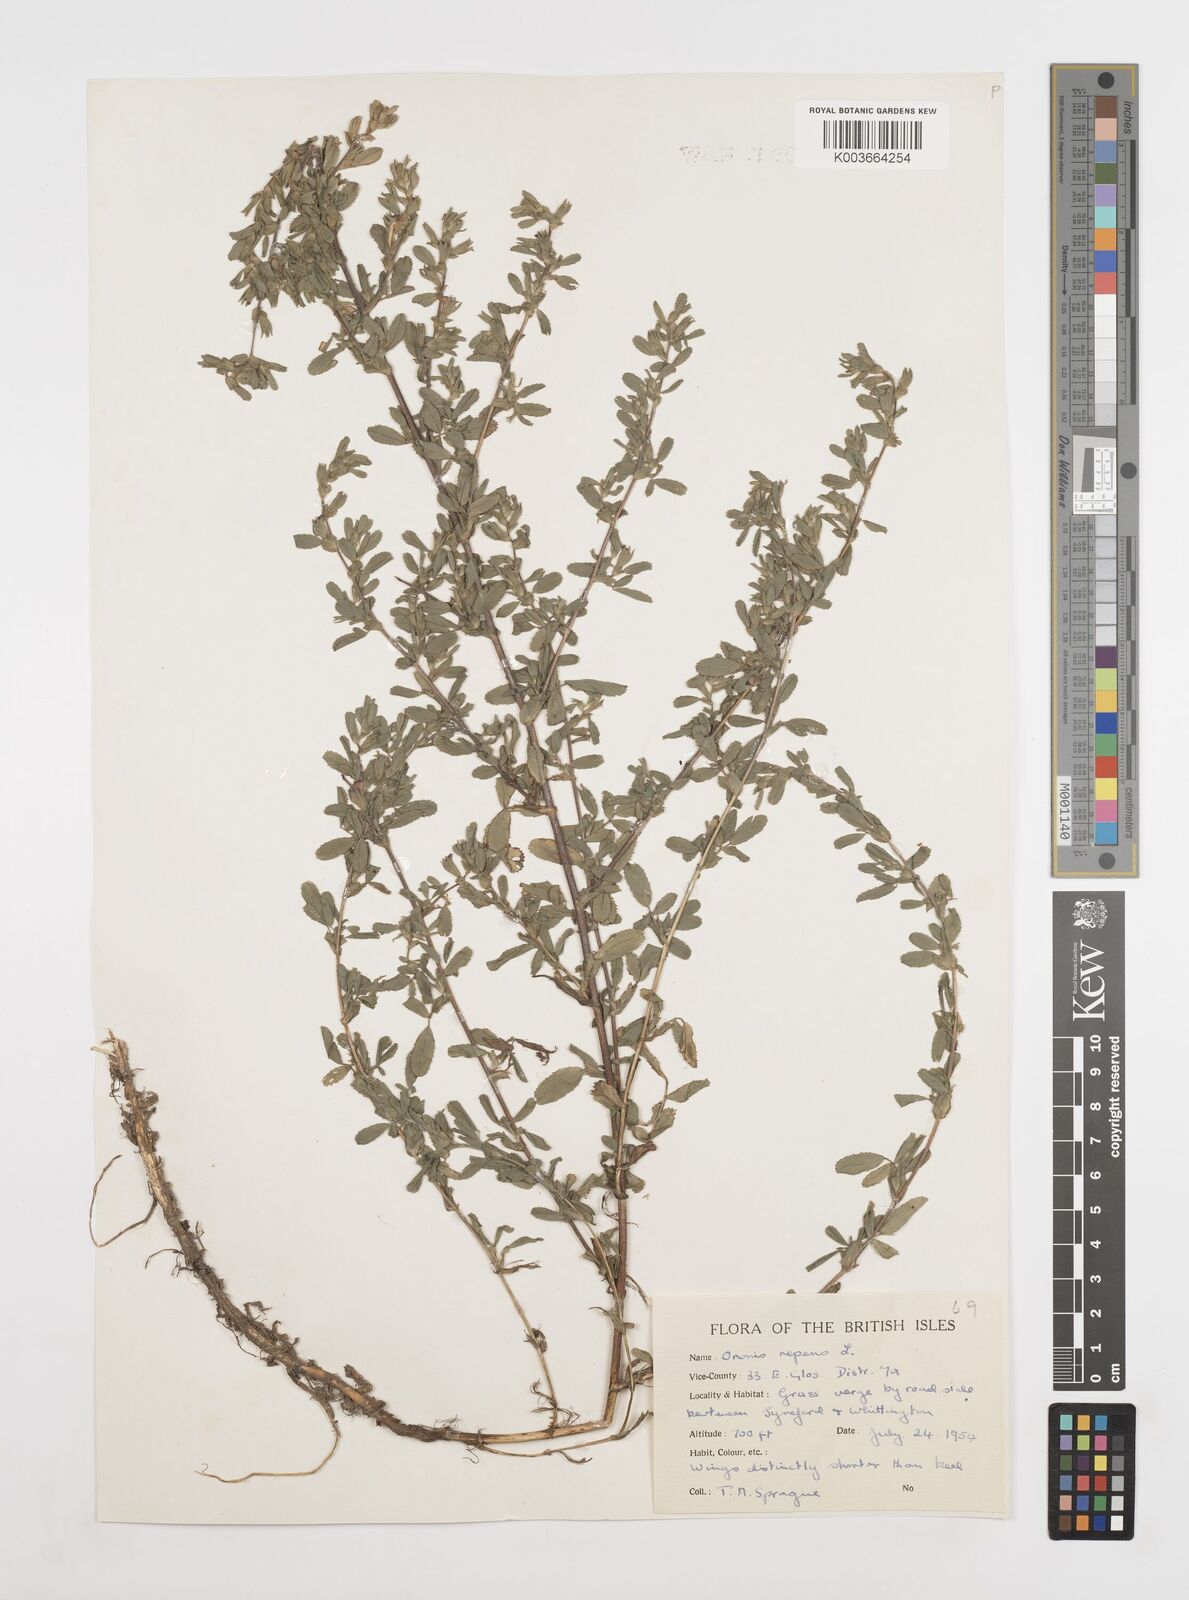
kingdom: Plantae
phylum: Tracheophyta
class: Magnoliopsida
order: Fabales
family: Fabaceae
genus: Ononis
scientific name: Ononis spinosa
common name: Spiny restharrow
